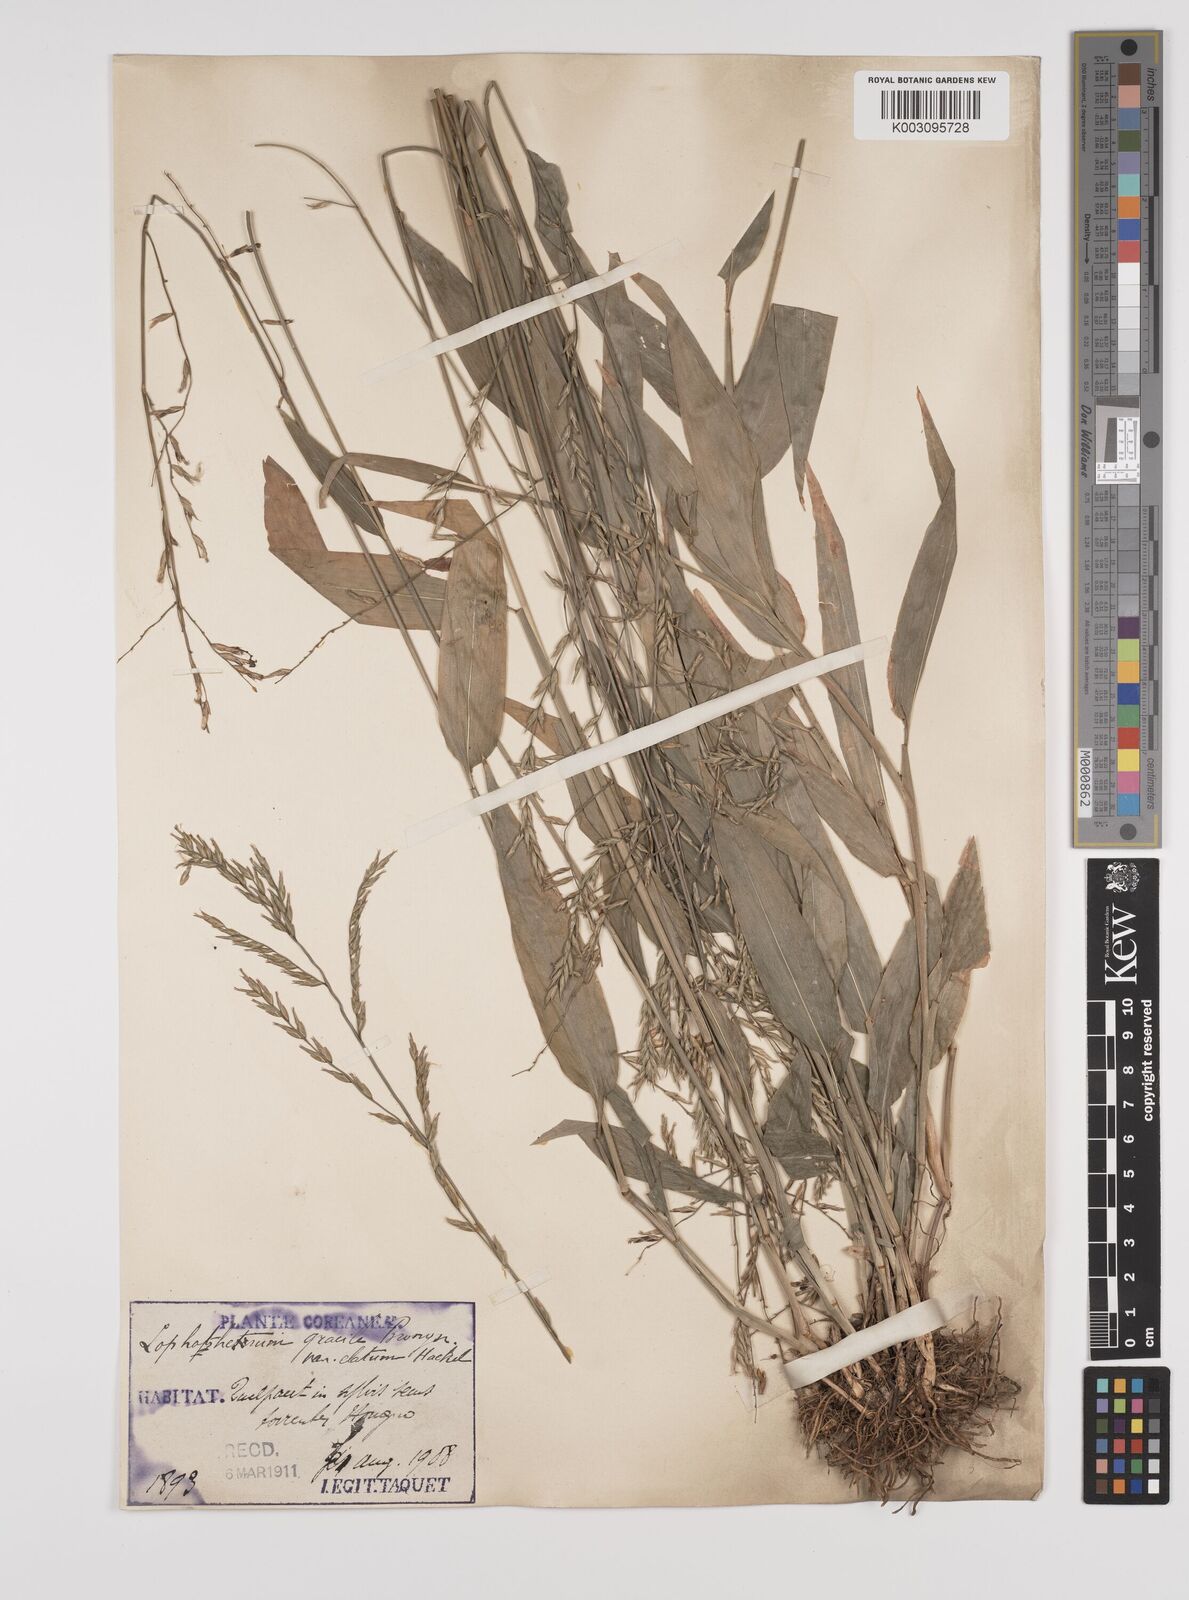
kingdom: Plantae
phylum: Tracheophyta
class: Liliopsida
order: Poales
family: Poaceae
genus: Lophatherum
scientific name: Lophatherum gracile
